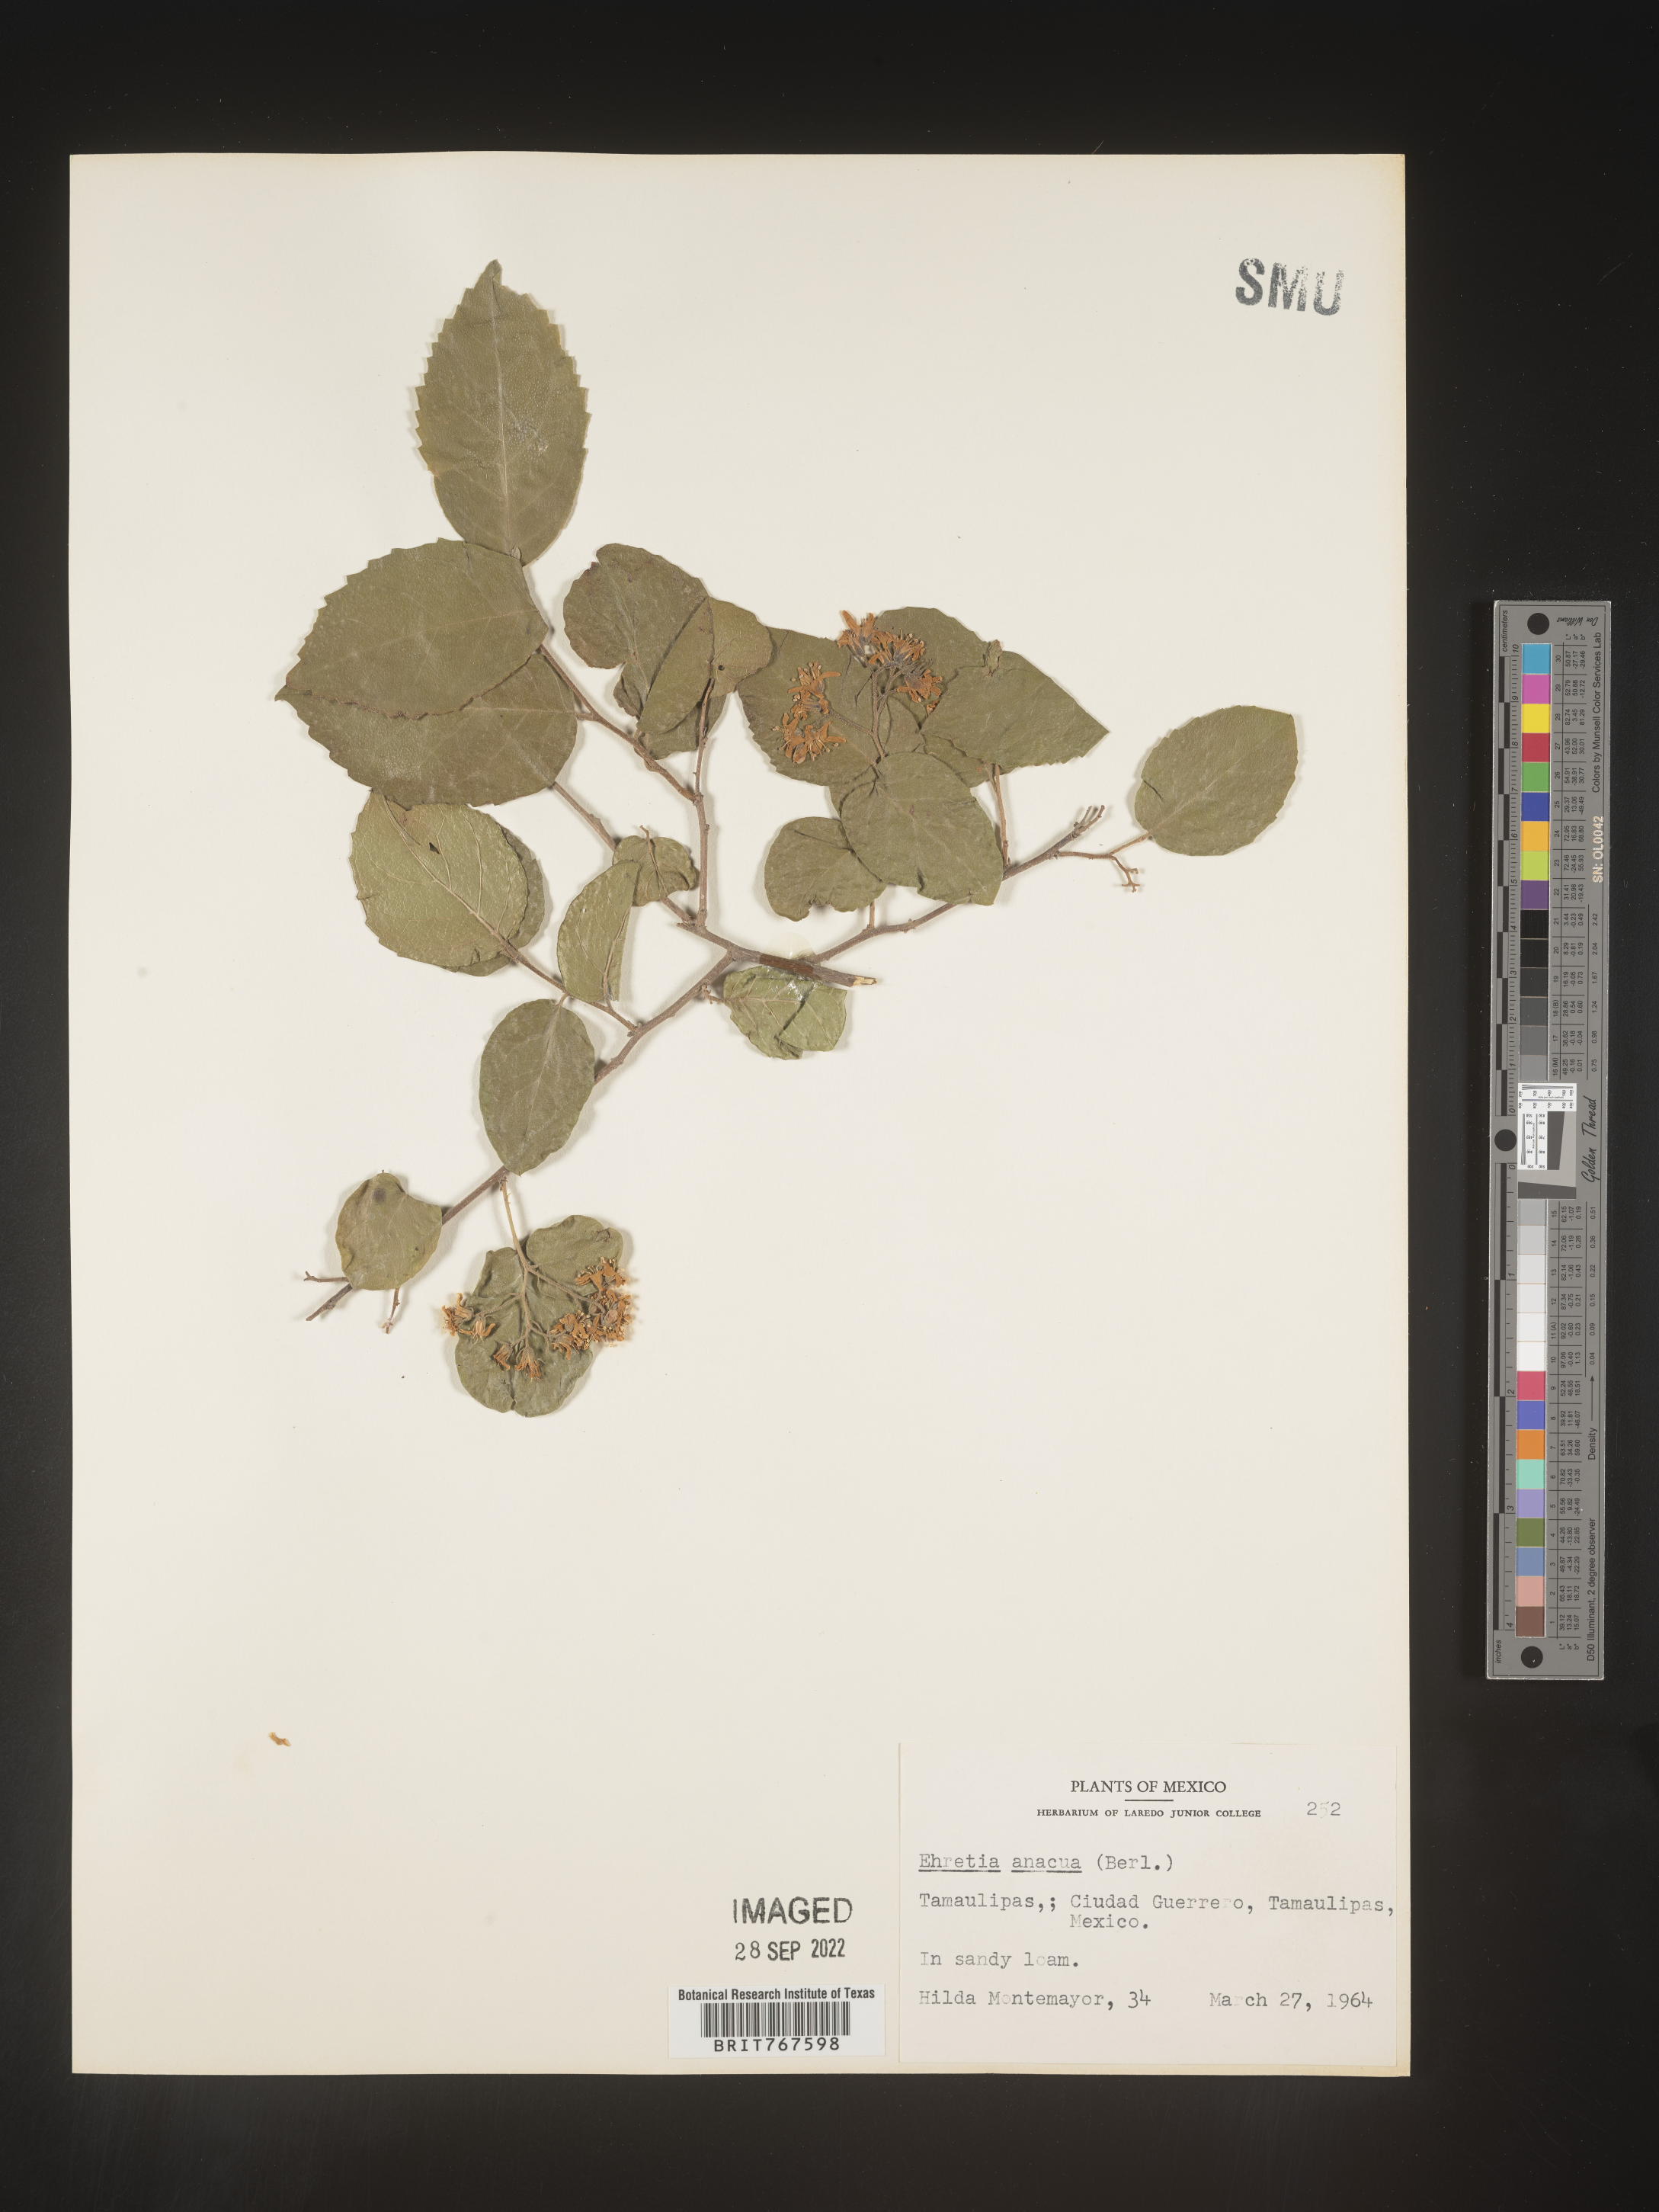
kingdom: Plantae
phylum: Tracheophyta
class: Magnoliopsida
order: Boraginales
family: Ehretiaceae
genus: Ehretia
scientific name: Ehretia
